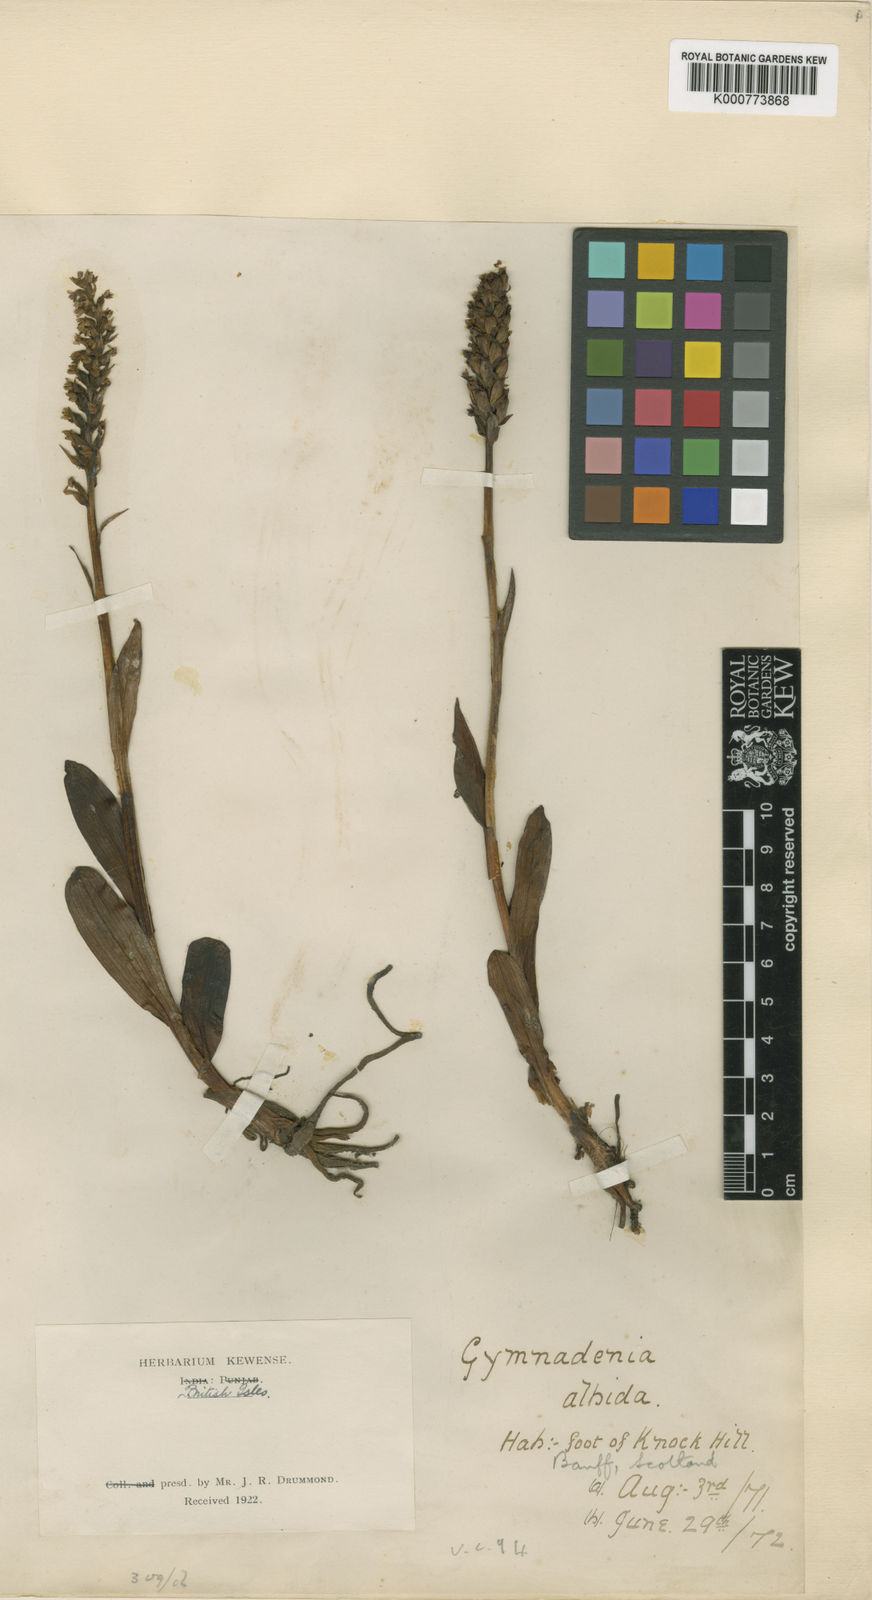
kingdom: Plantae
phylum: Tracheophyta
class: Liliopsida
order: Asparagales
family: Orchidaceae
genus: Pseudorchis
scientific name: Pseudorchis
